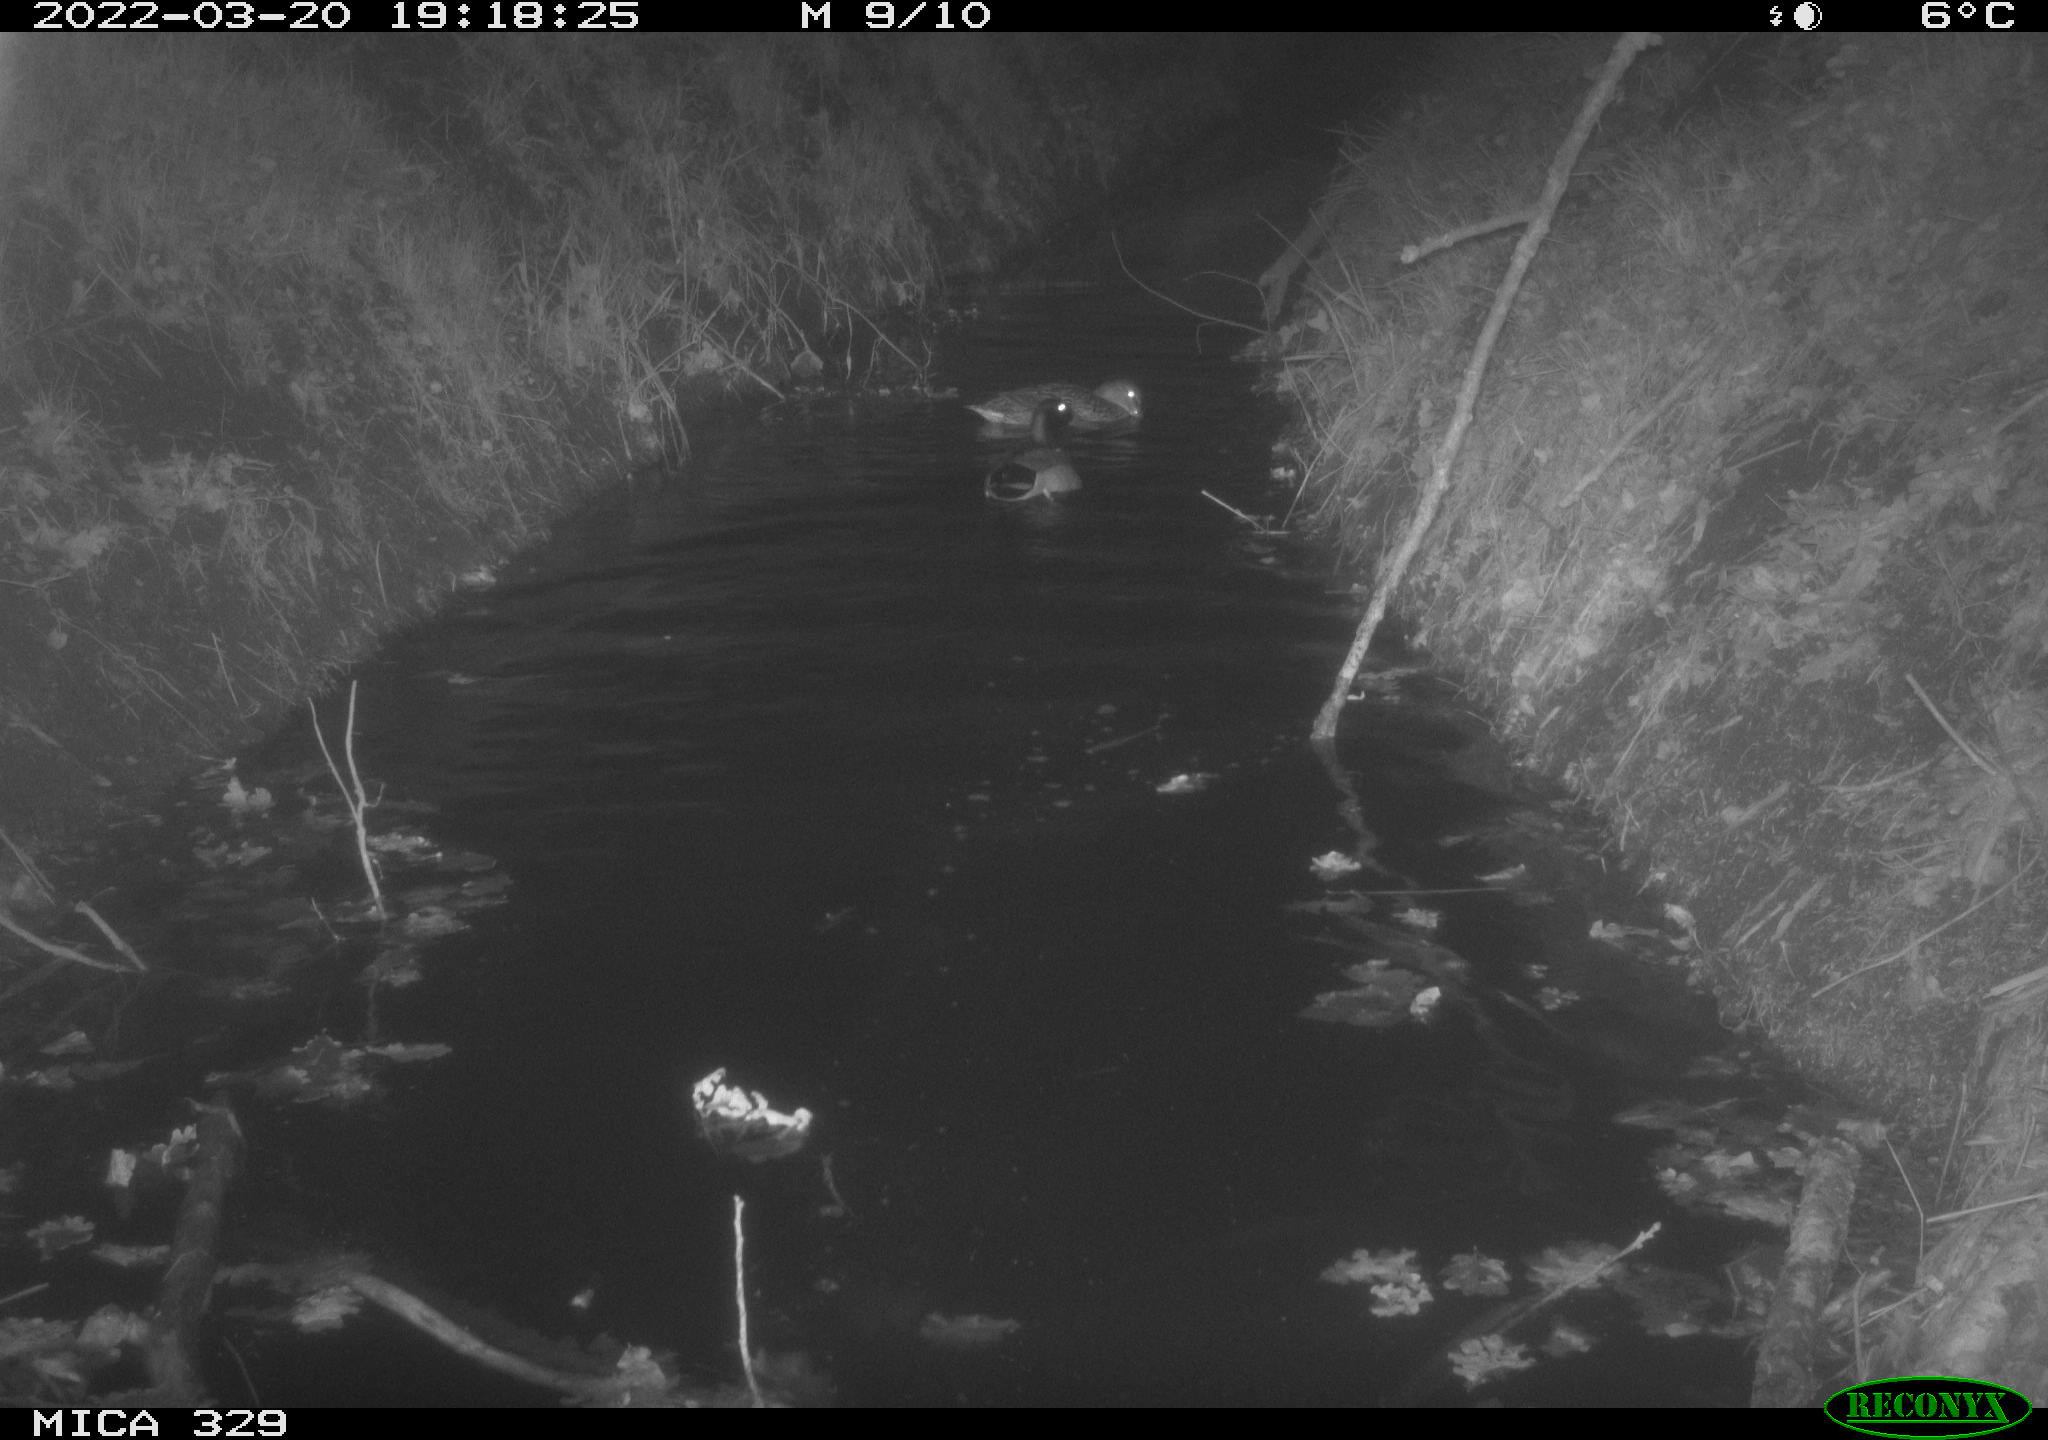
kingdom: Animalia
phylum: Chordata
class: Aves
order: Anseriformes
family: Anatidae
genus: Anas
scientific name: Anas platyrhynchos
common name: Mallard
